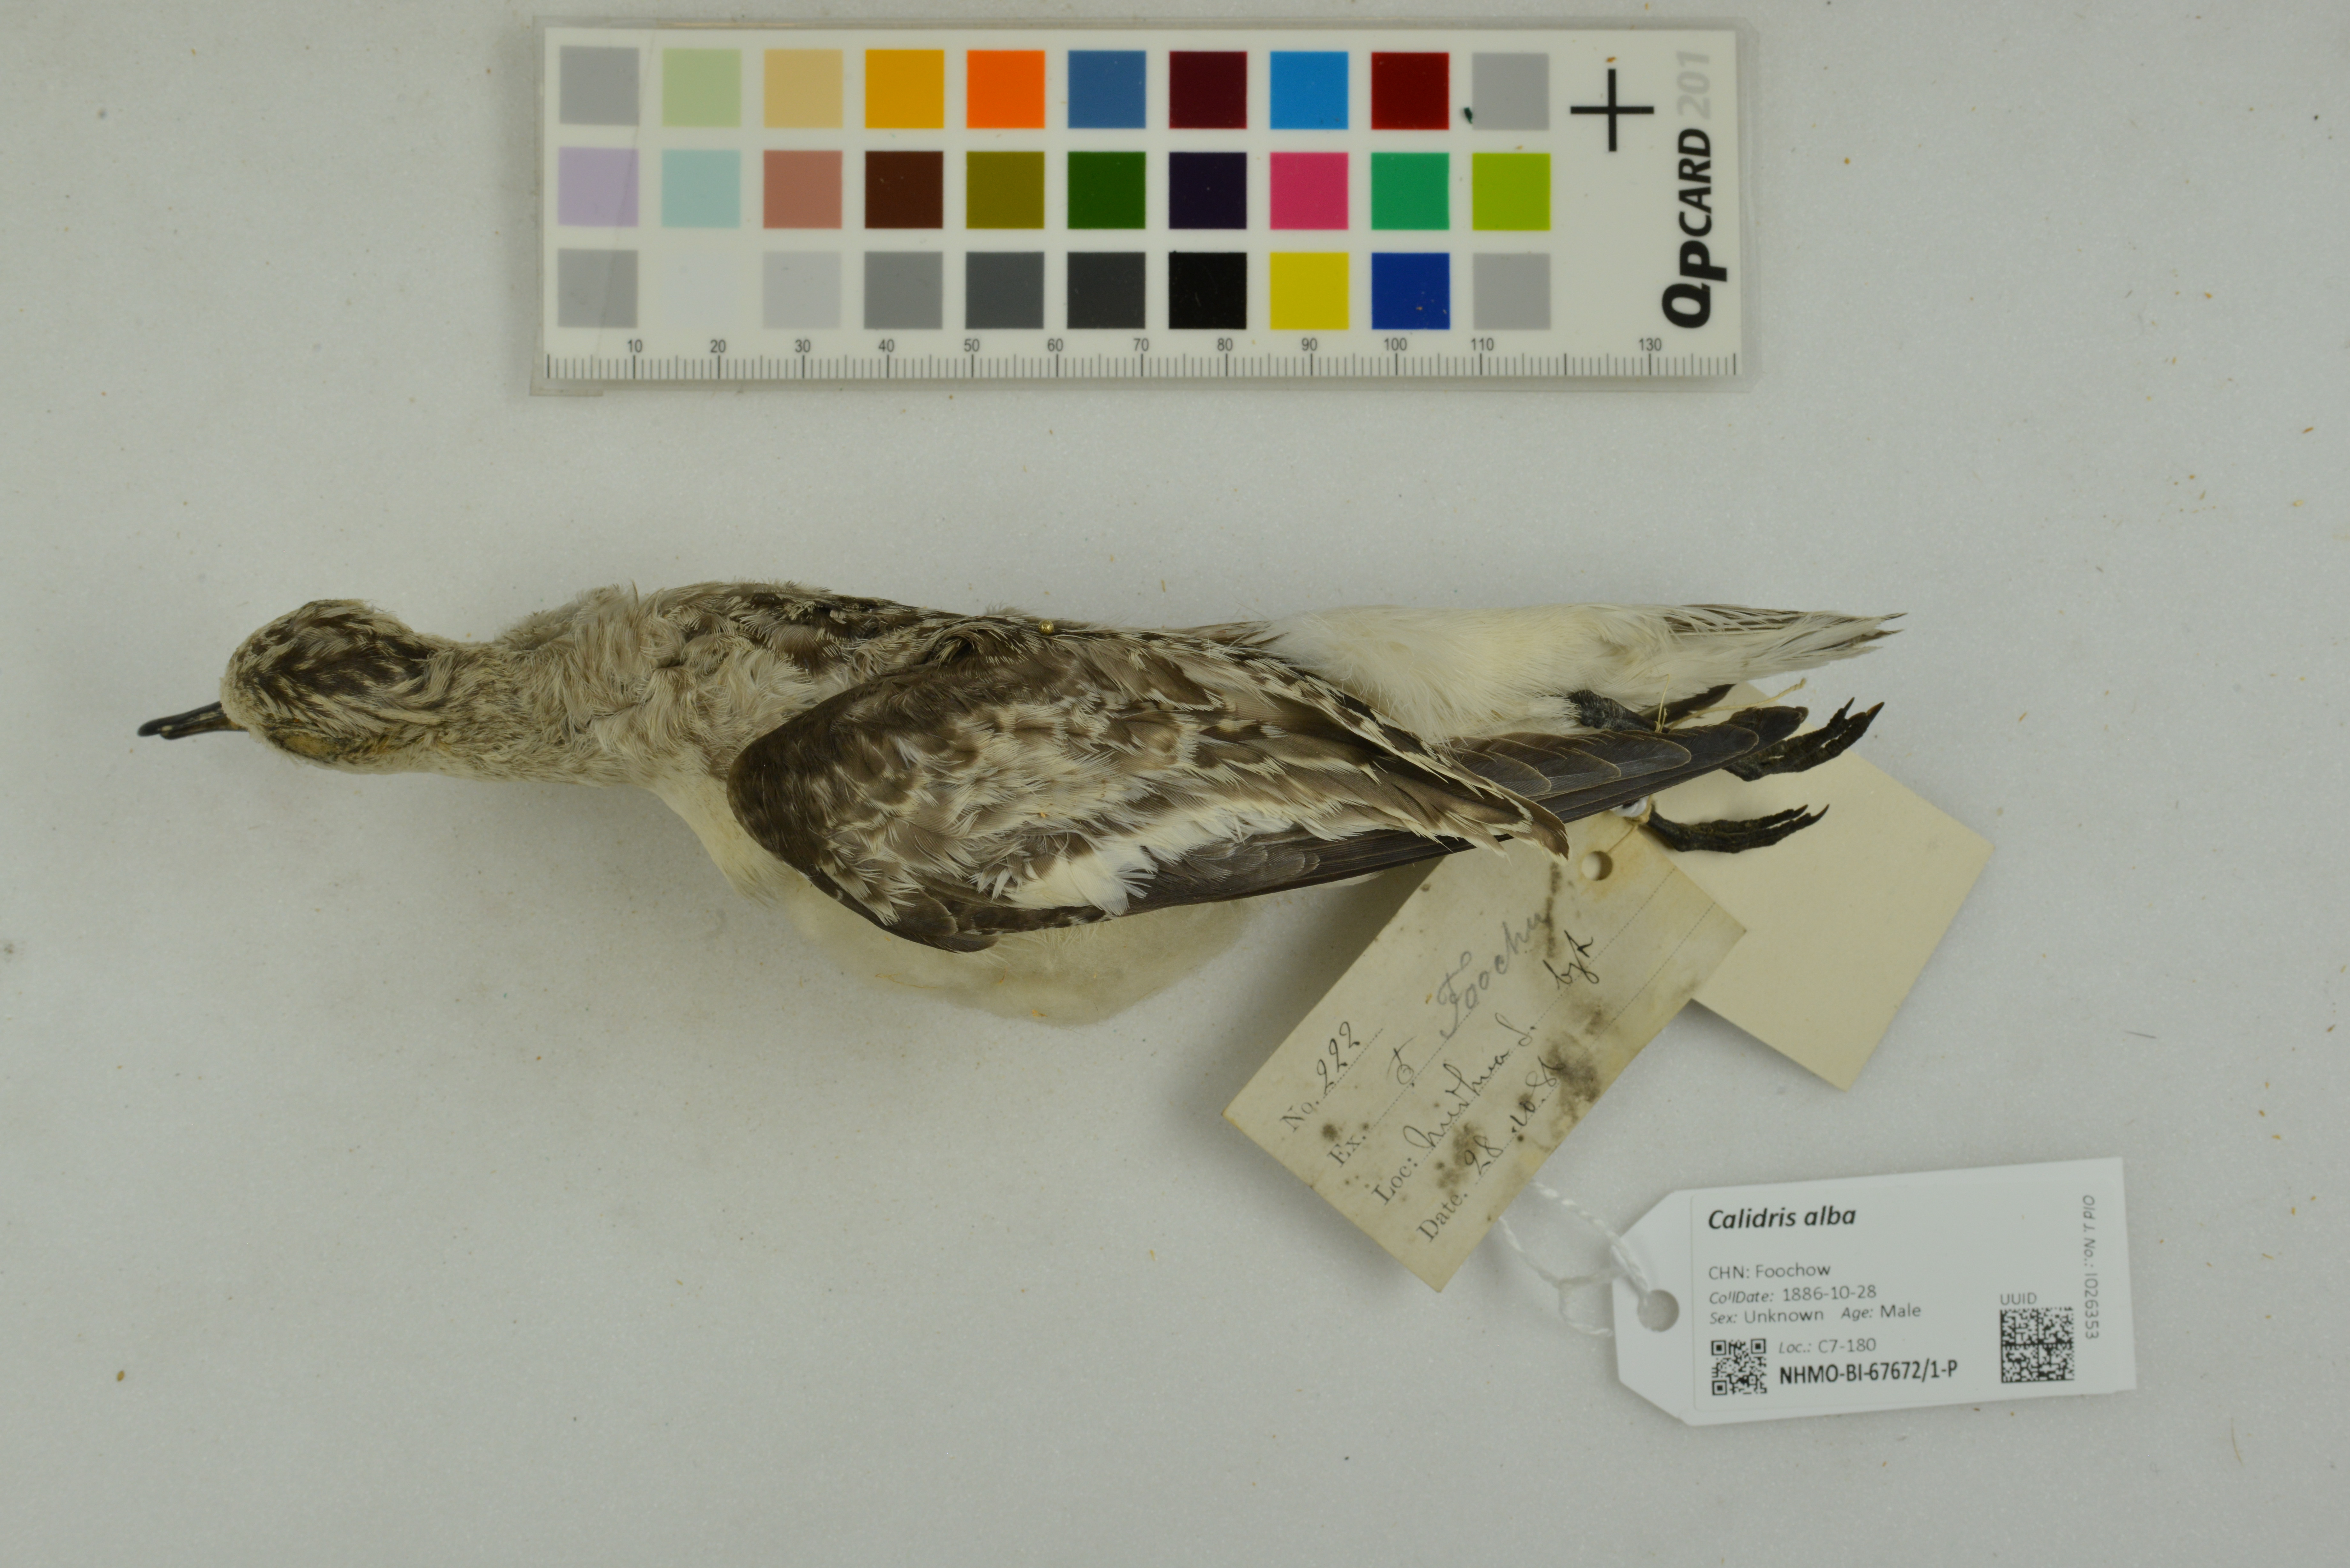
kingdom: Animalia
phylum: Chordata
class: Aves
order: Charadriiformes
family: Scolopacidae
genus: Calidris
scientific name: Calidris alba
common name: Sanderling
